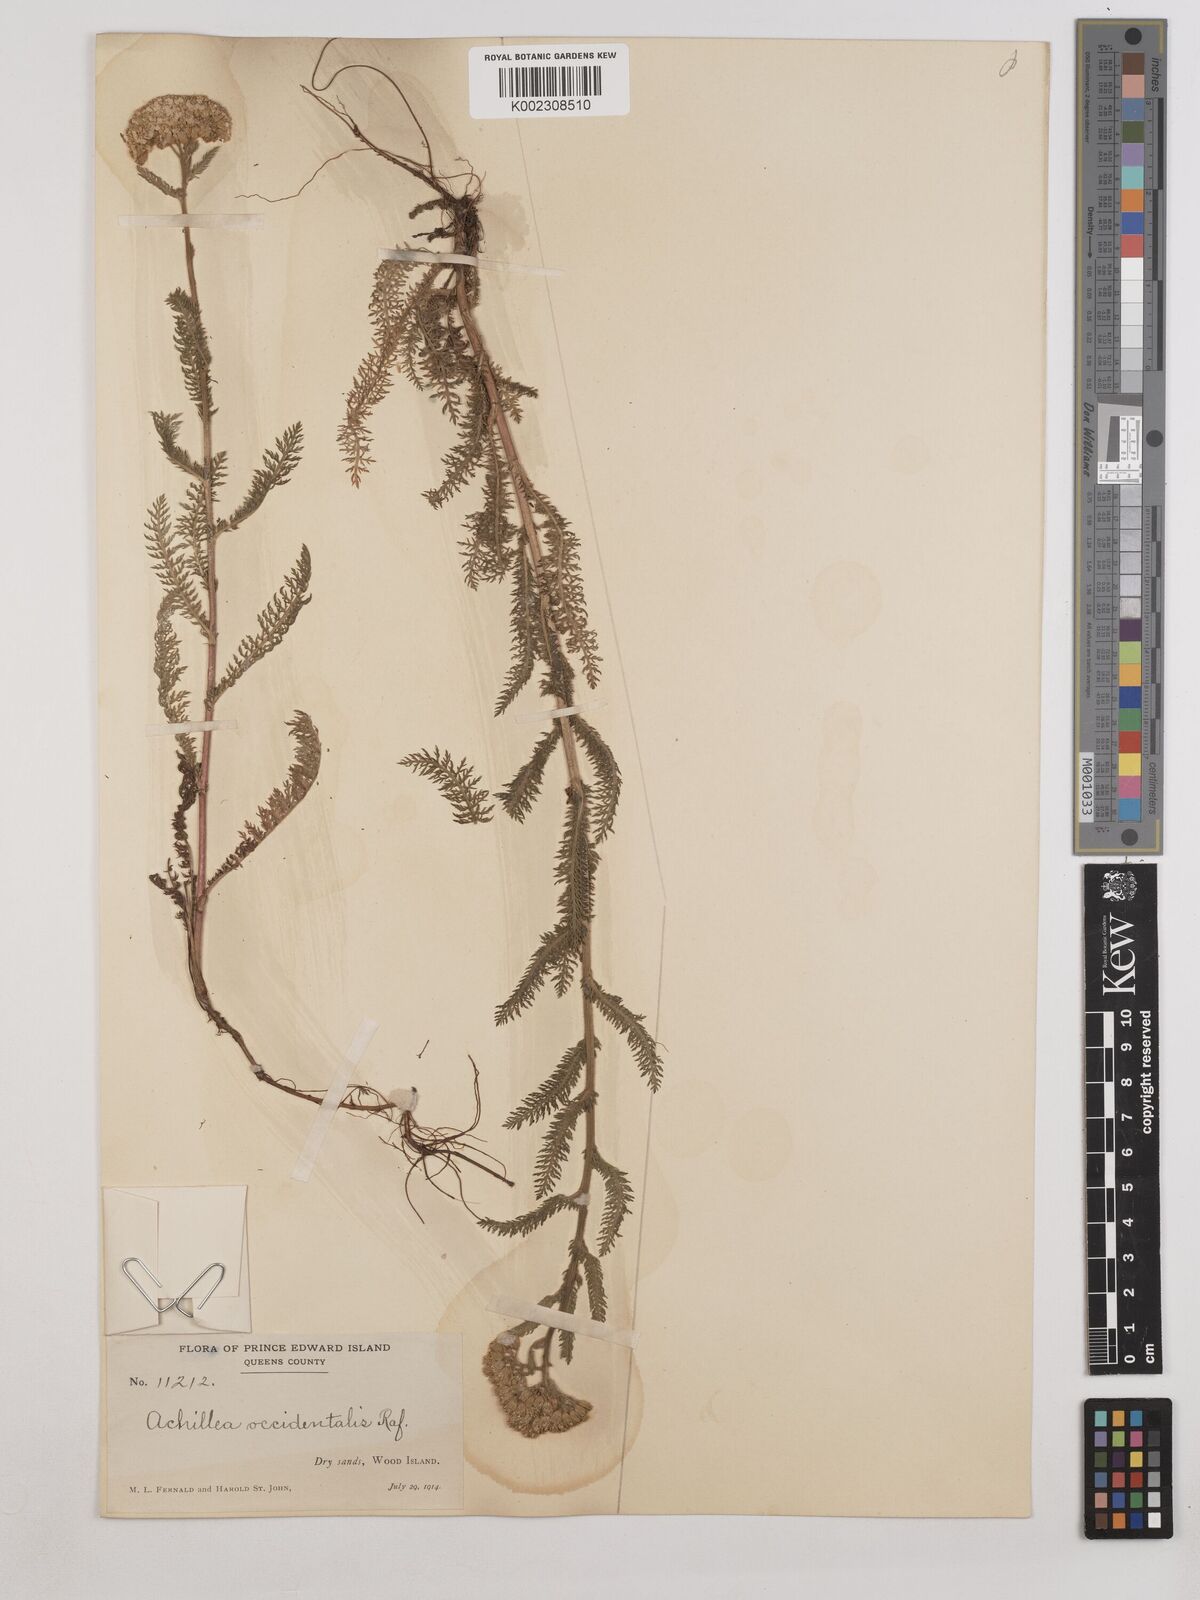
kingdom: Plantae
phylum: Tracheophyta
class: Magnoliopsida
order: Asterales
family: Asteraceae
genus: Achillea
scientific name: Achillea millefolium
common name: Yarrow
